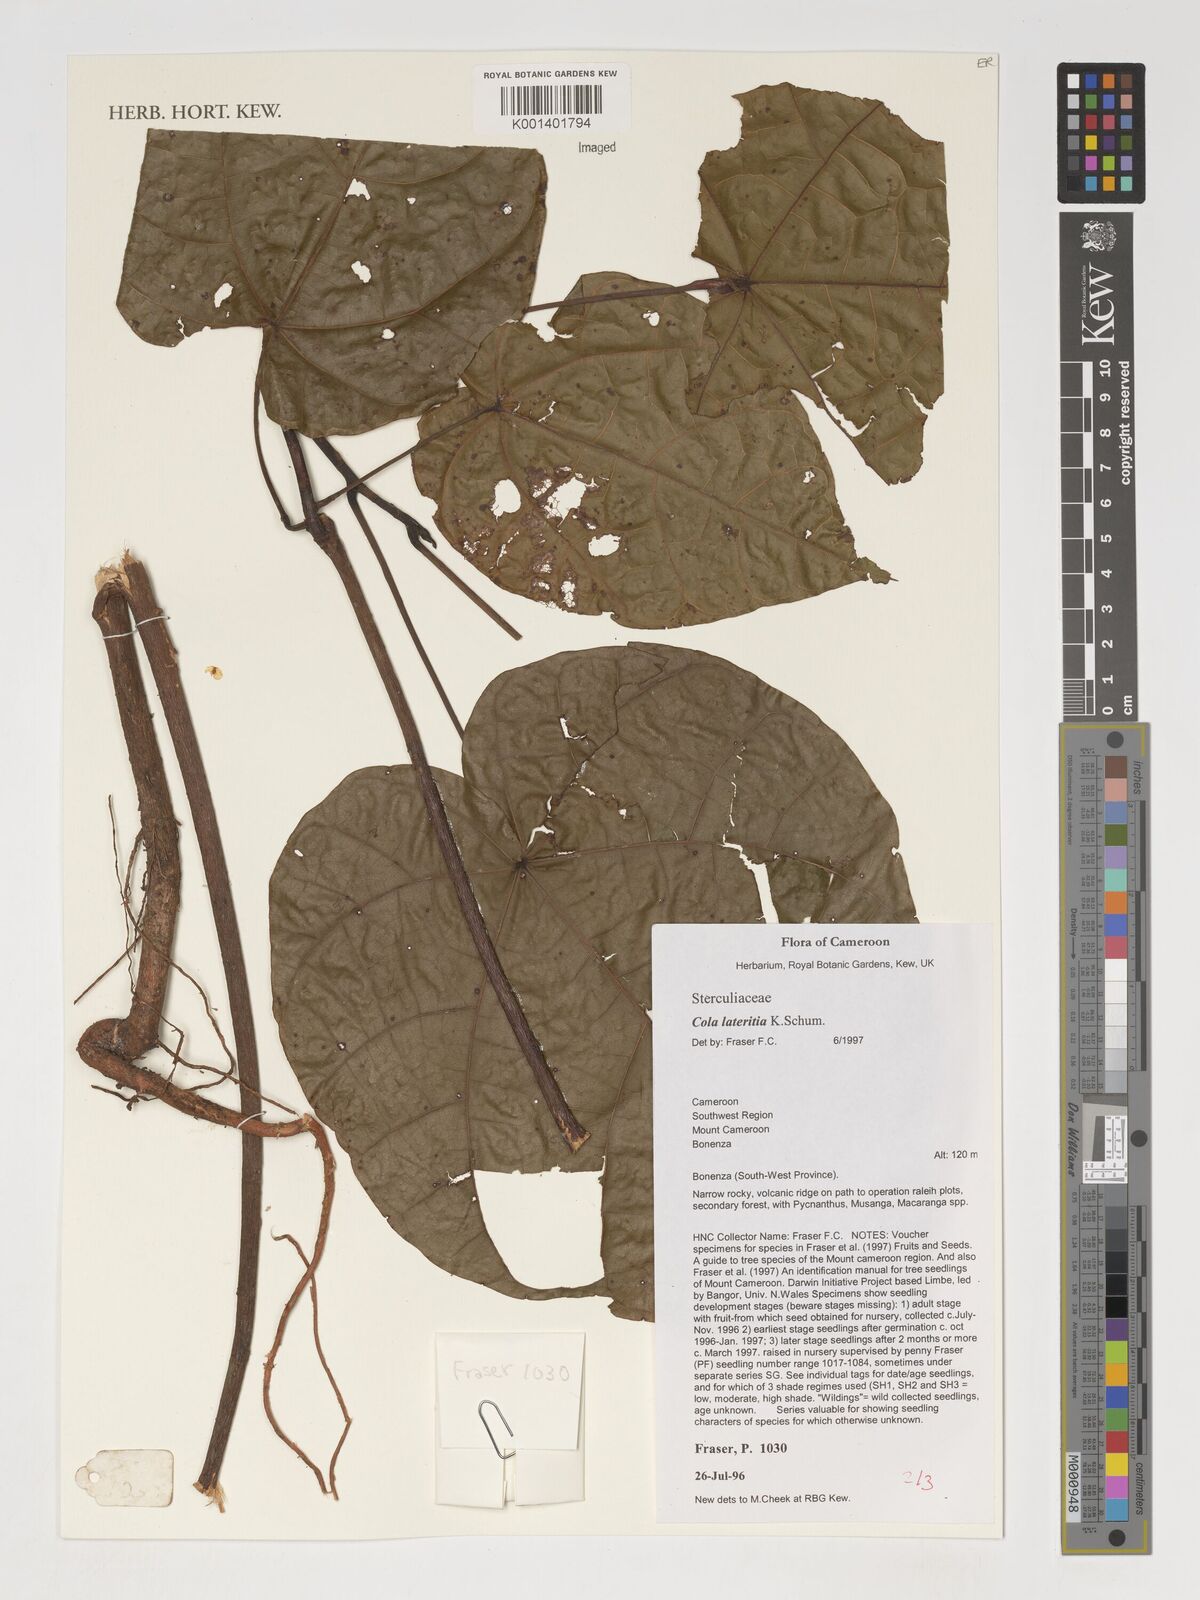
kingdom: Plantae
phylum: Tracheophyta
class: Magnoliopsida
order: Malvales
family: Malvaceae
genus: Cola
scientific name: Cola lateritia
